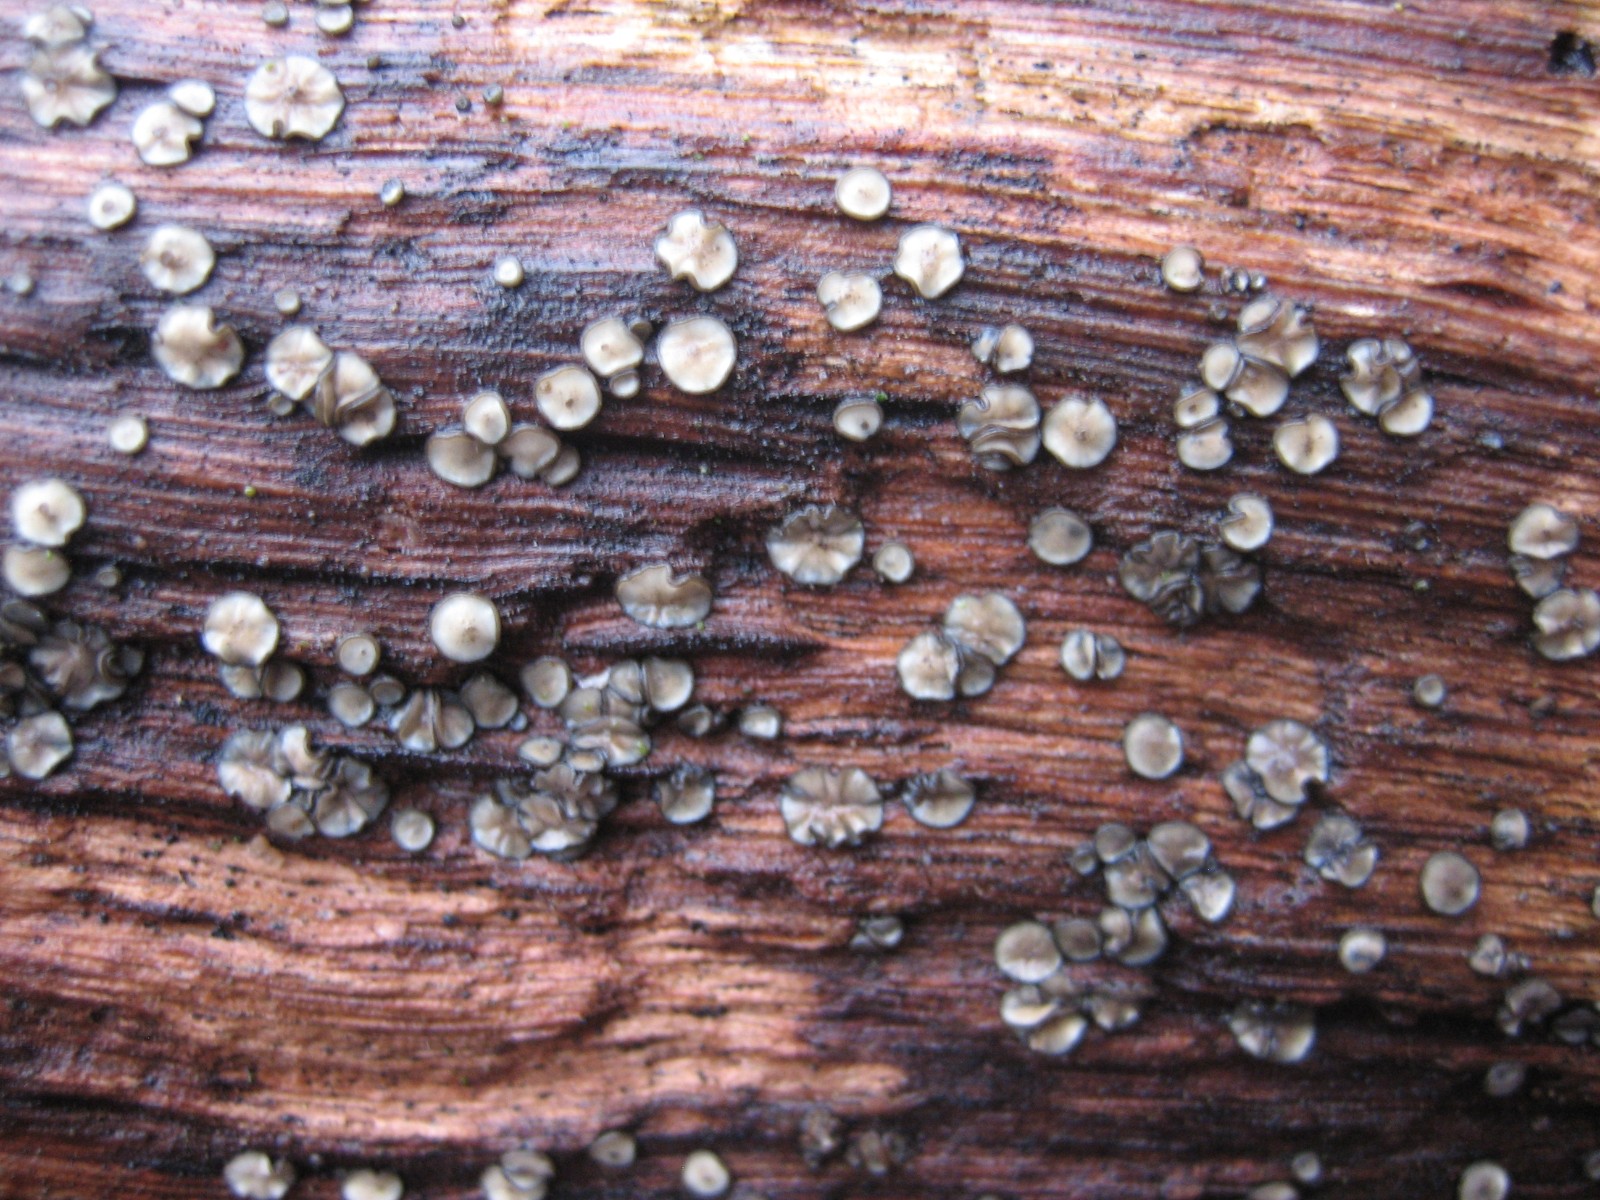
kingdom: Fungi
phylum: Ascomycota
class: Leotiomycetes
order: Helotiales
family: Mollisiaceae
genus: Mollisia
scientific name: Mollisia
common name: gråskive
